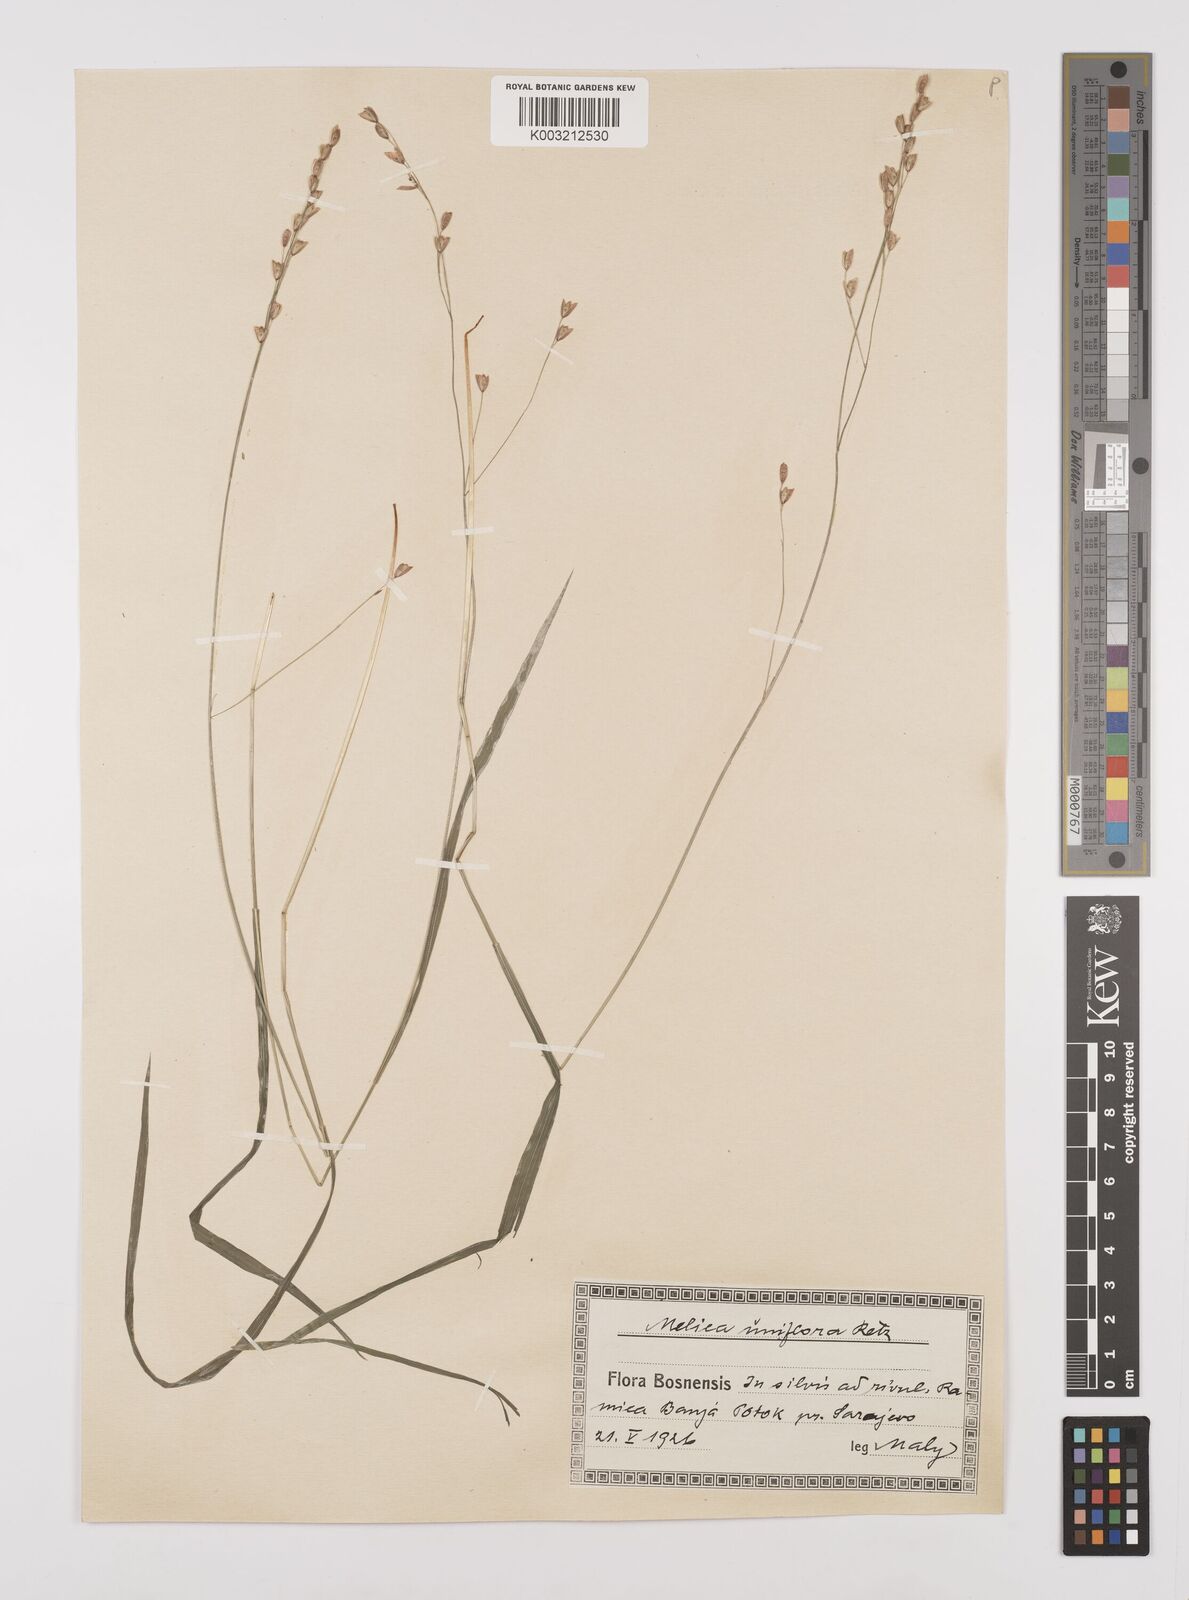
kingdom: Plantae
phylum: Tracheophyta
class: Liliopsida
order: Poales
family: Poaceae
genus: Melica
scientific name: Melica uniflora
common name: Wood melick
